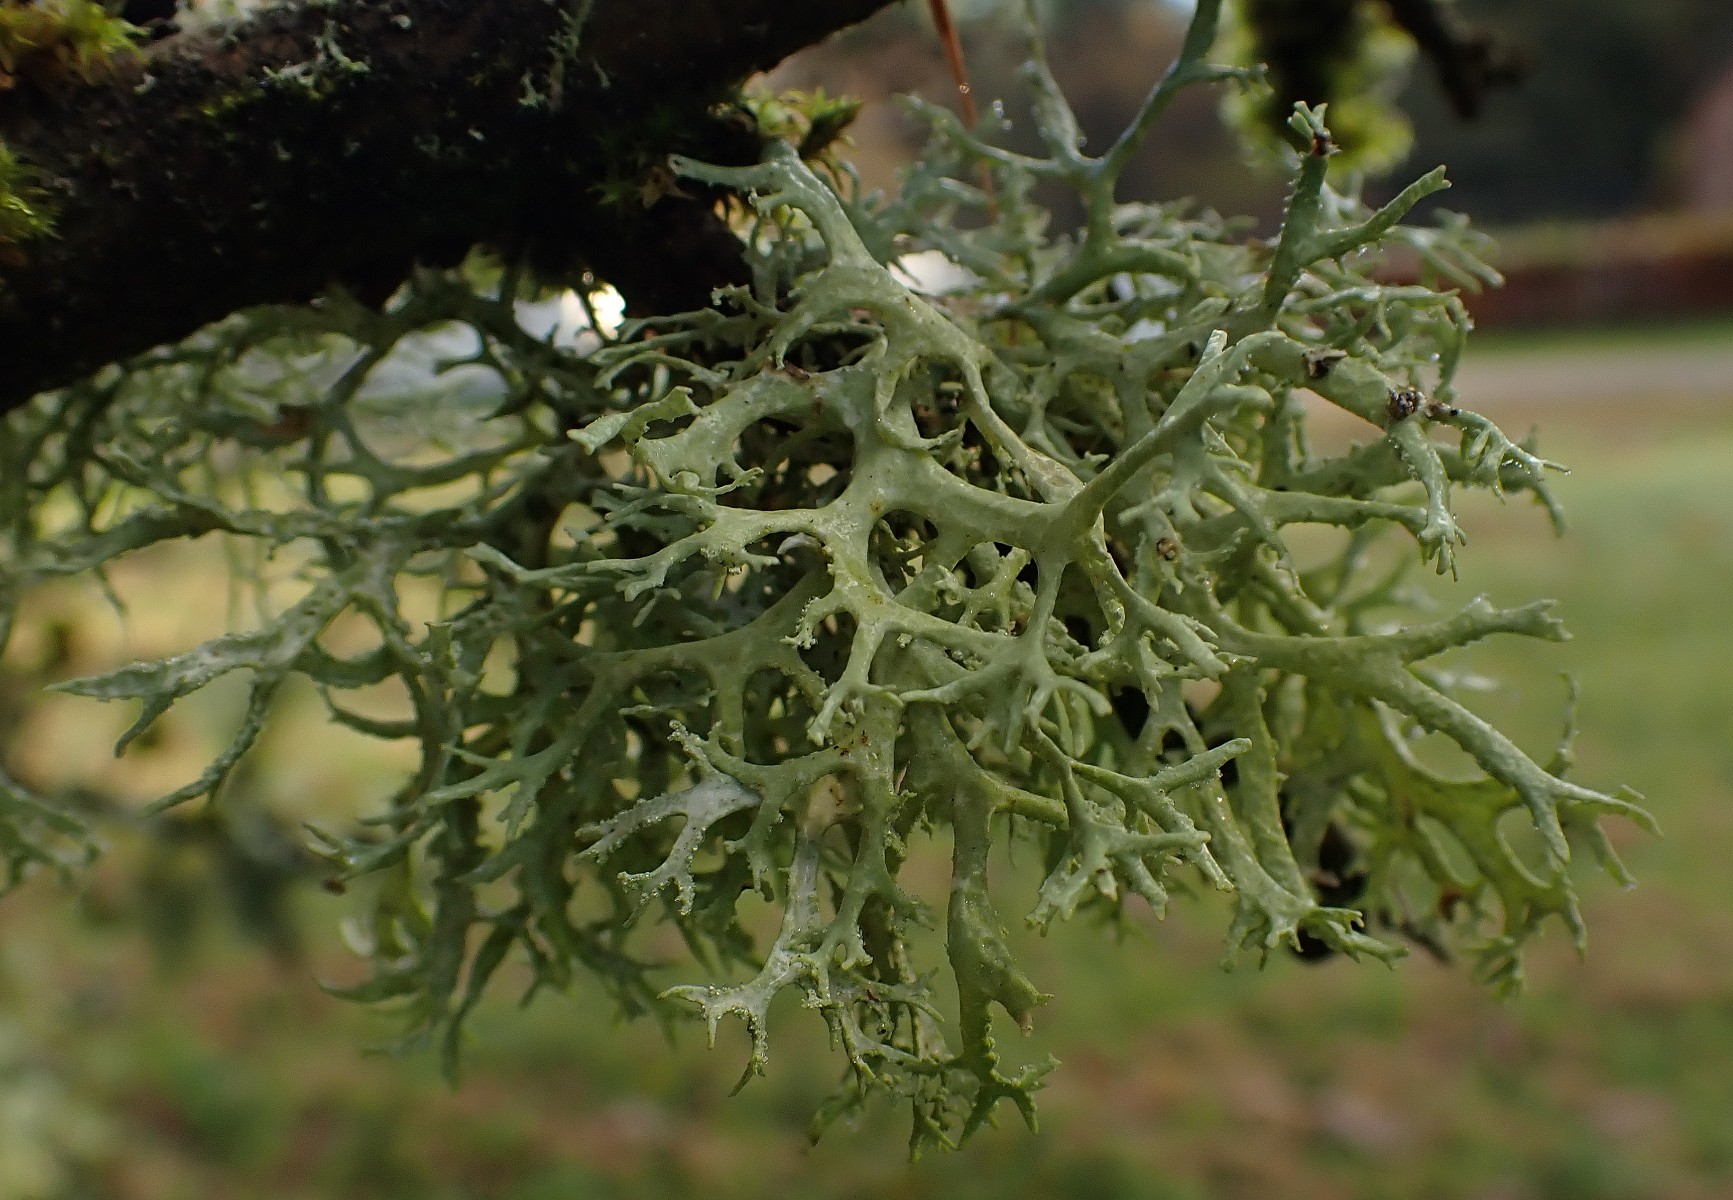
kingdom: Fungi
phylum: Ascomycota
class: Lecanoromycetes
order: Lecanorales
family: Parmeliaceae
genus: Evernia
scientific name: Evernia prunastri
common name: almindelig slåenlav
